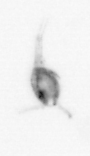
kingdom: Animalia
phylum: Arthropoda
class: Copepoda
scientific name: Copepoda
